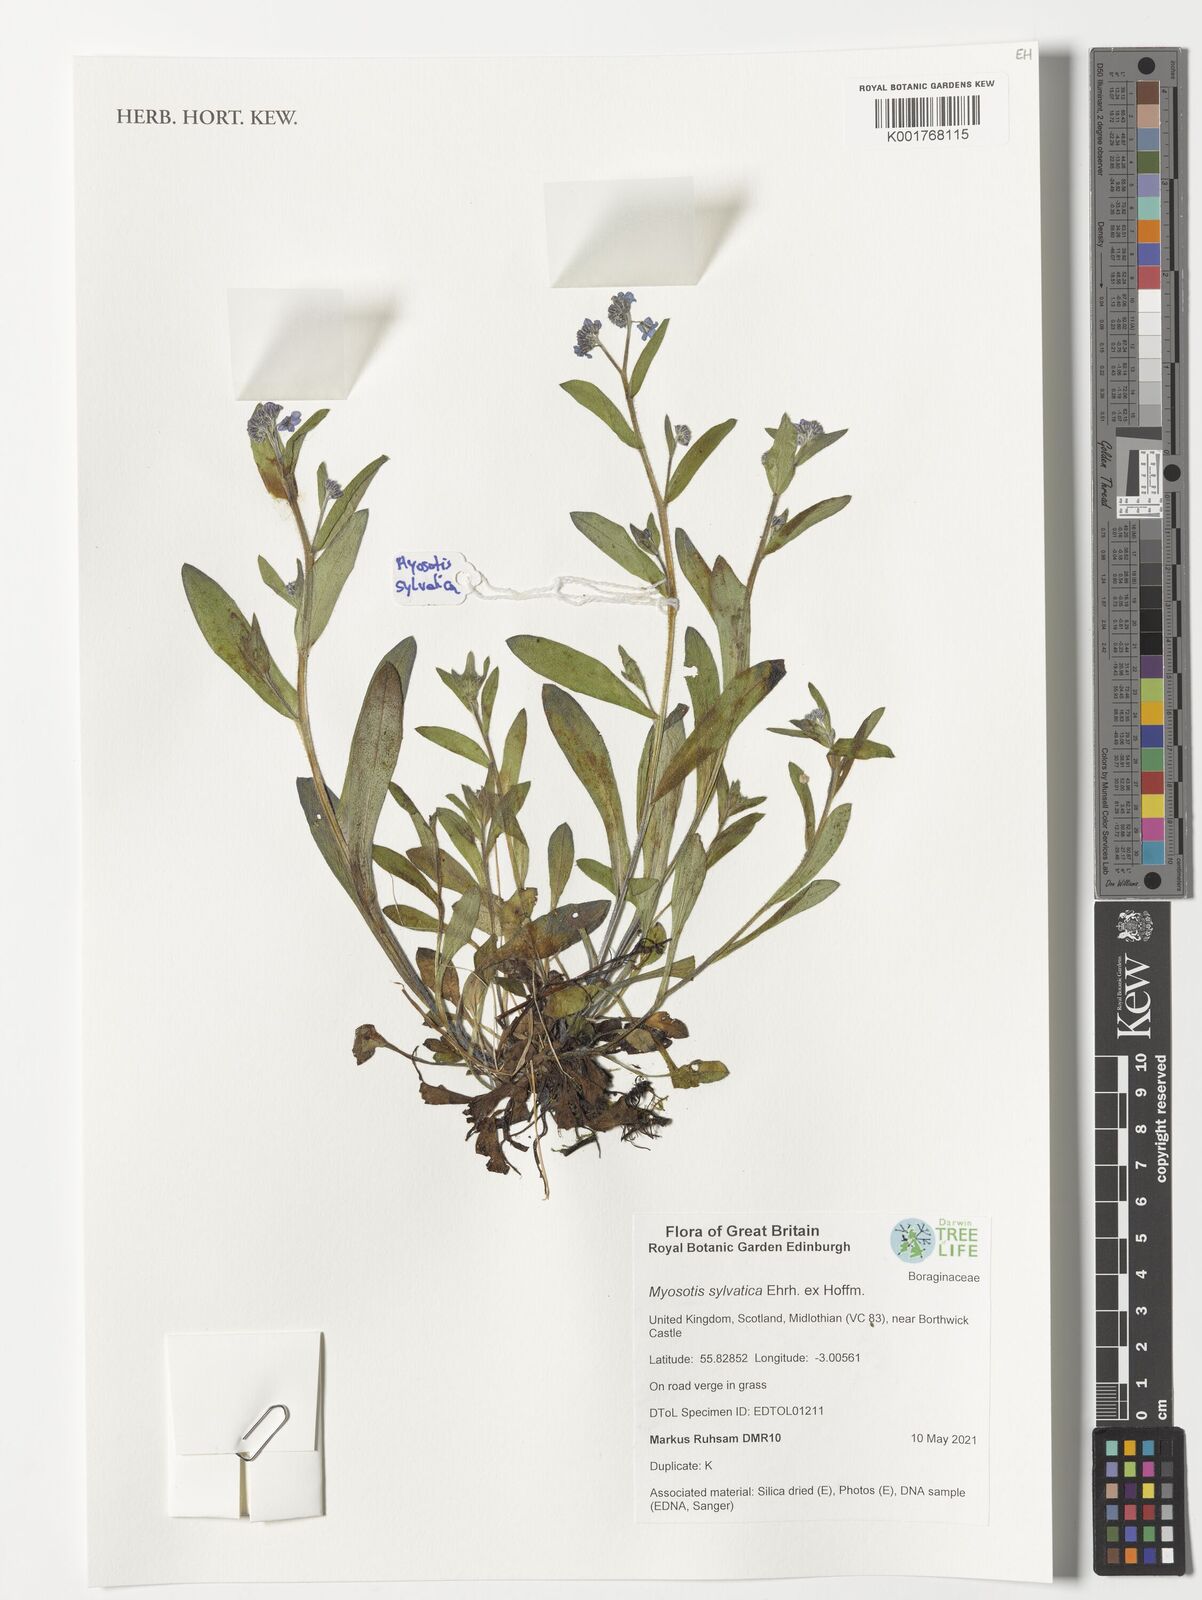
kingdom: Plantae
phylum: Tracheophyta
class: Magnoliopsida
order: Boraginales
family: Boraginaceae
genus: Myosotis
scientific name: Myosotis sylvatica
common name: Wood forget-me-not
